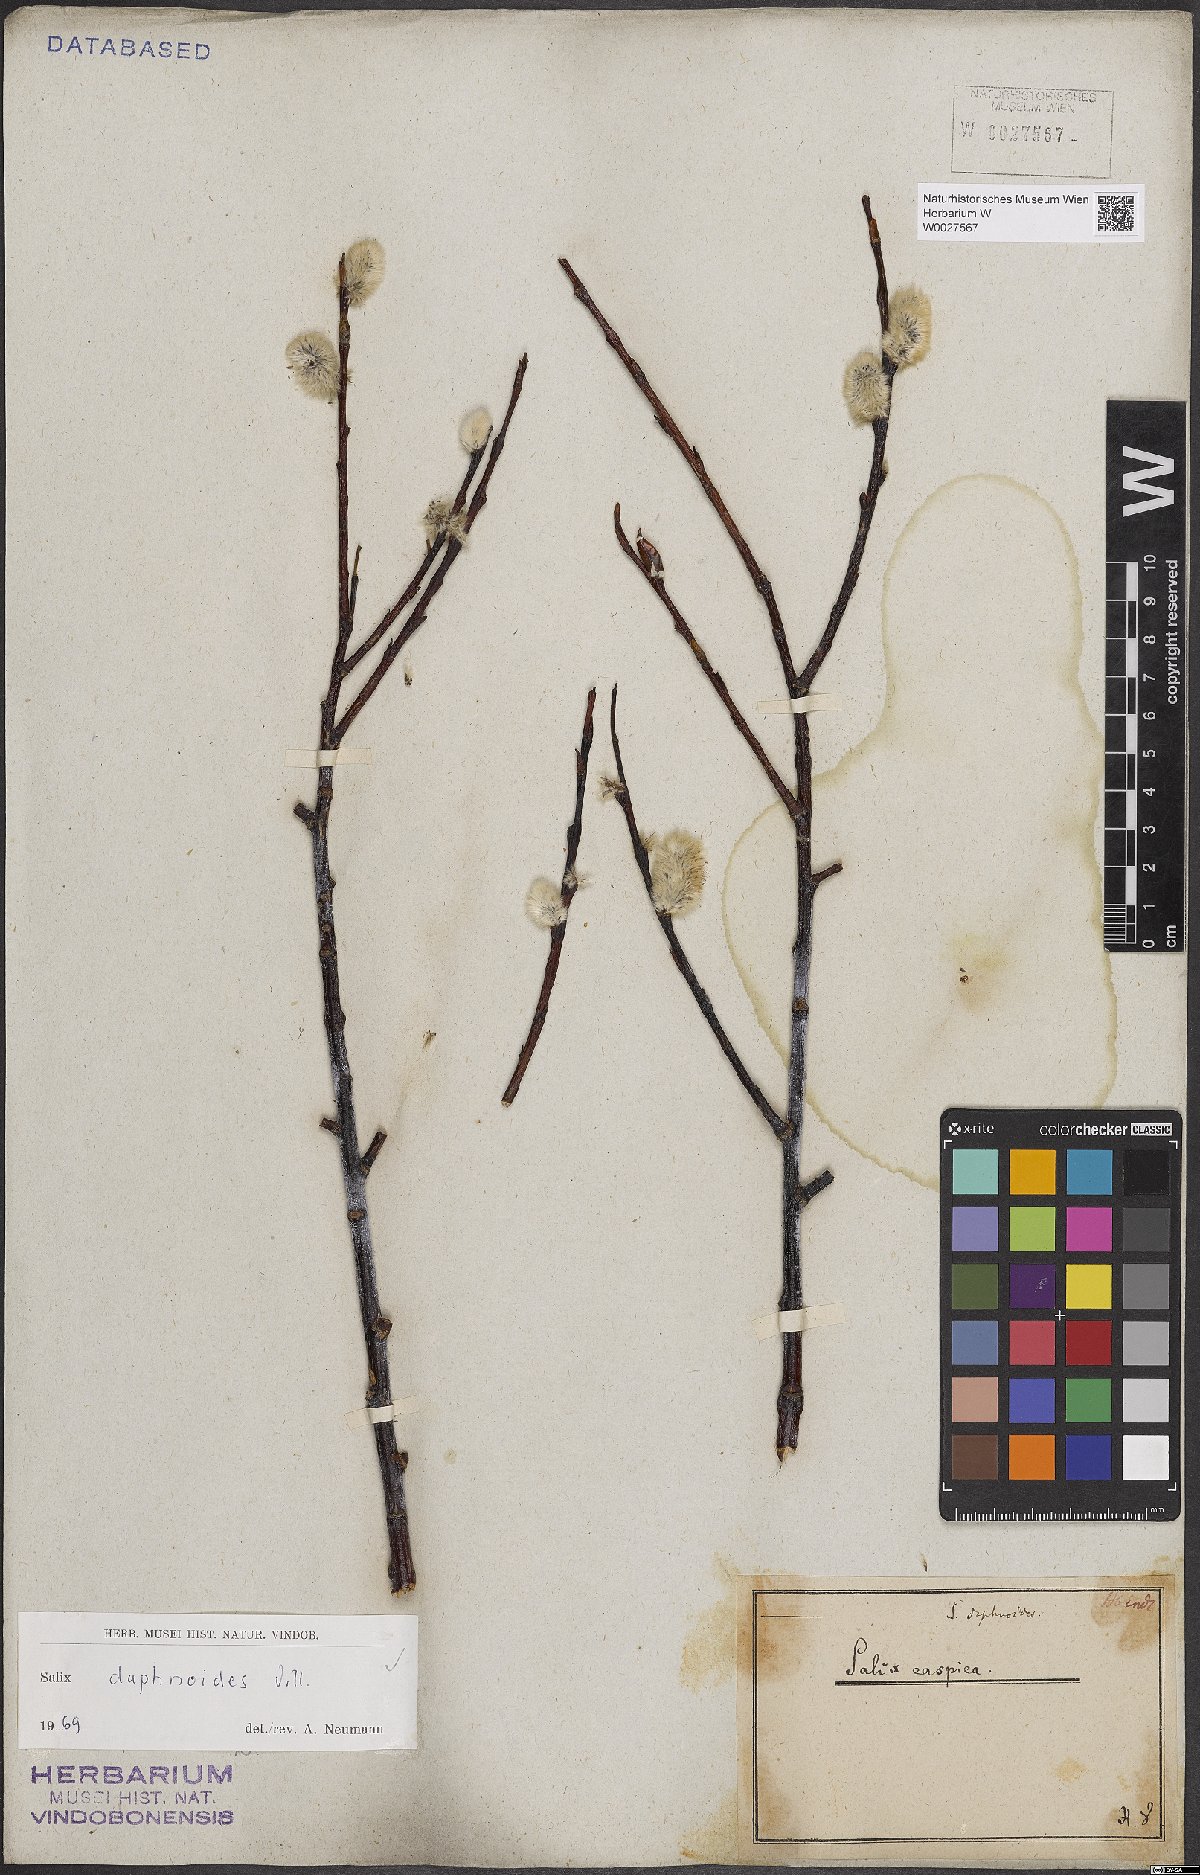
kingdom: Plantae
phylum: Tracheophyta
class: Magnoliopsida
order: Malpighiales
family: Salicaceae
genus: Salix
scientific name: Salix daphnoides
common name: European violet-willow
